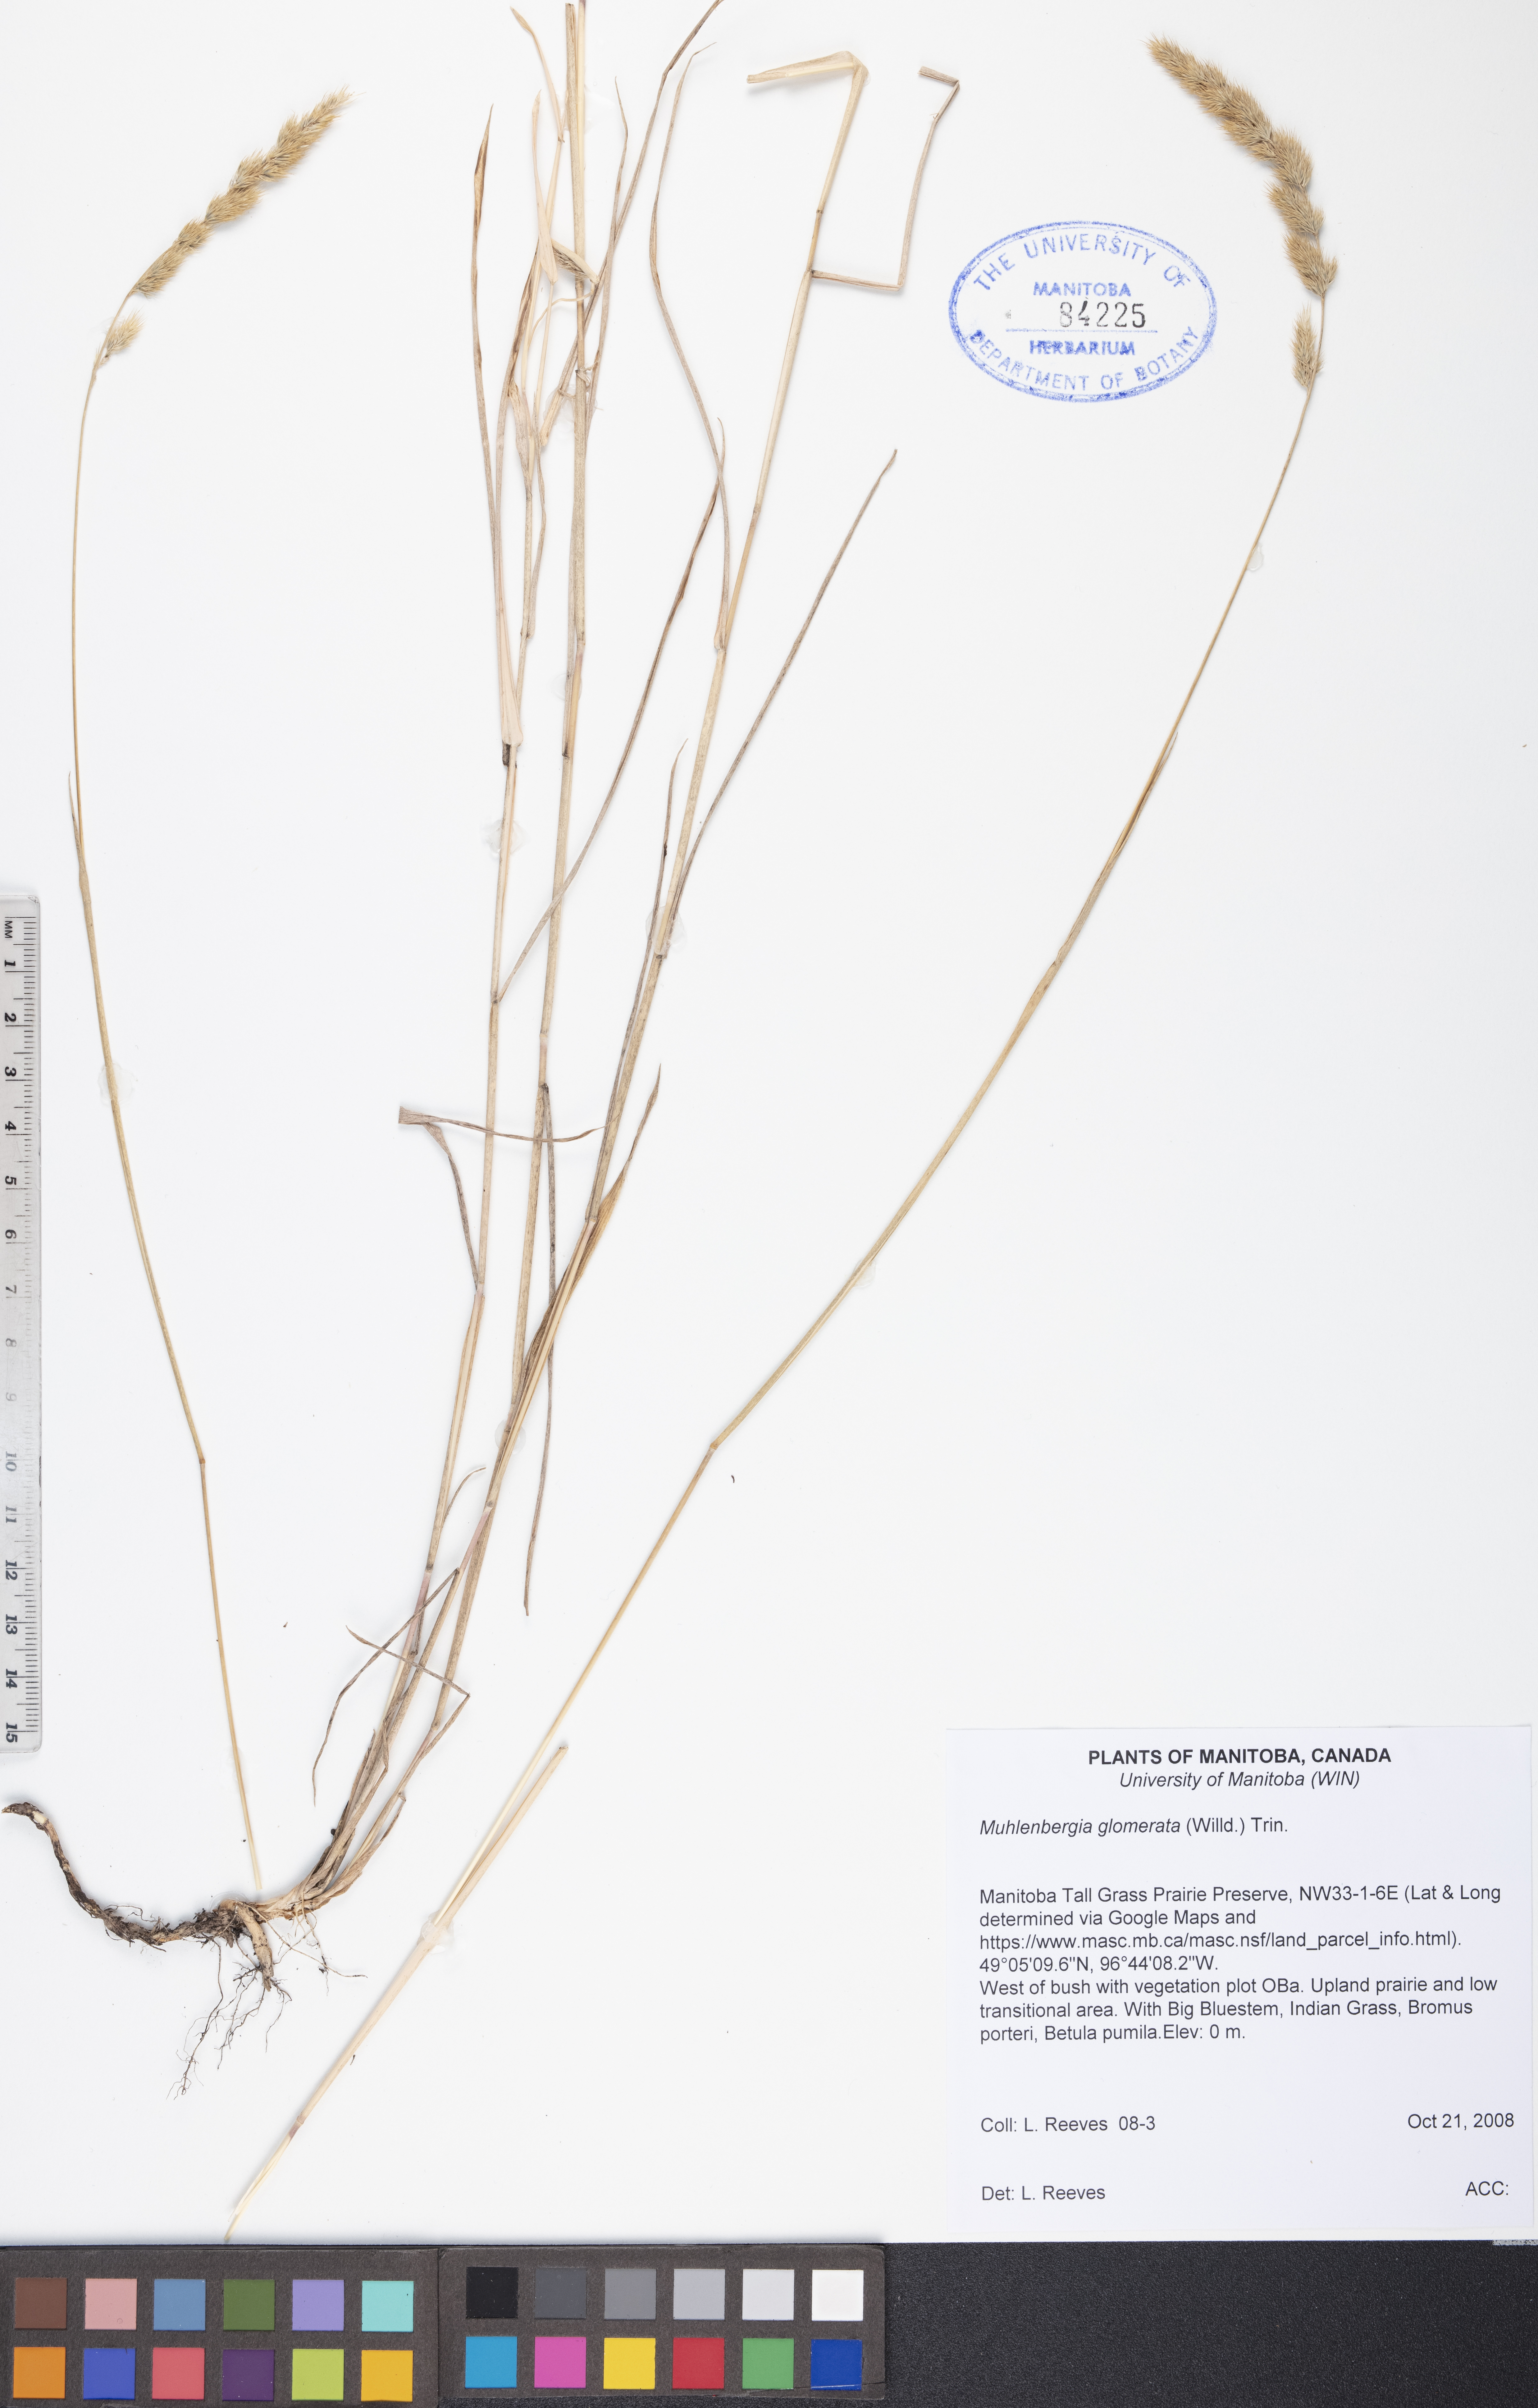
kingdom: Plantae
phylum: Tracheophyta
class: Liliopsida
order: Poales
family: Poaceae
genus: Muhlenbergia
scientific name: Muhlenbergia glomerata
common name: Bog muhly
